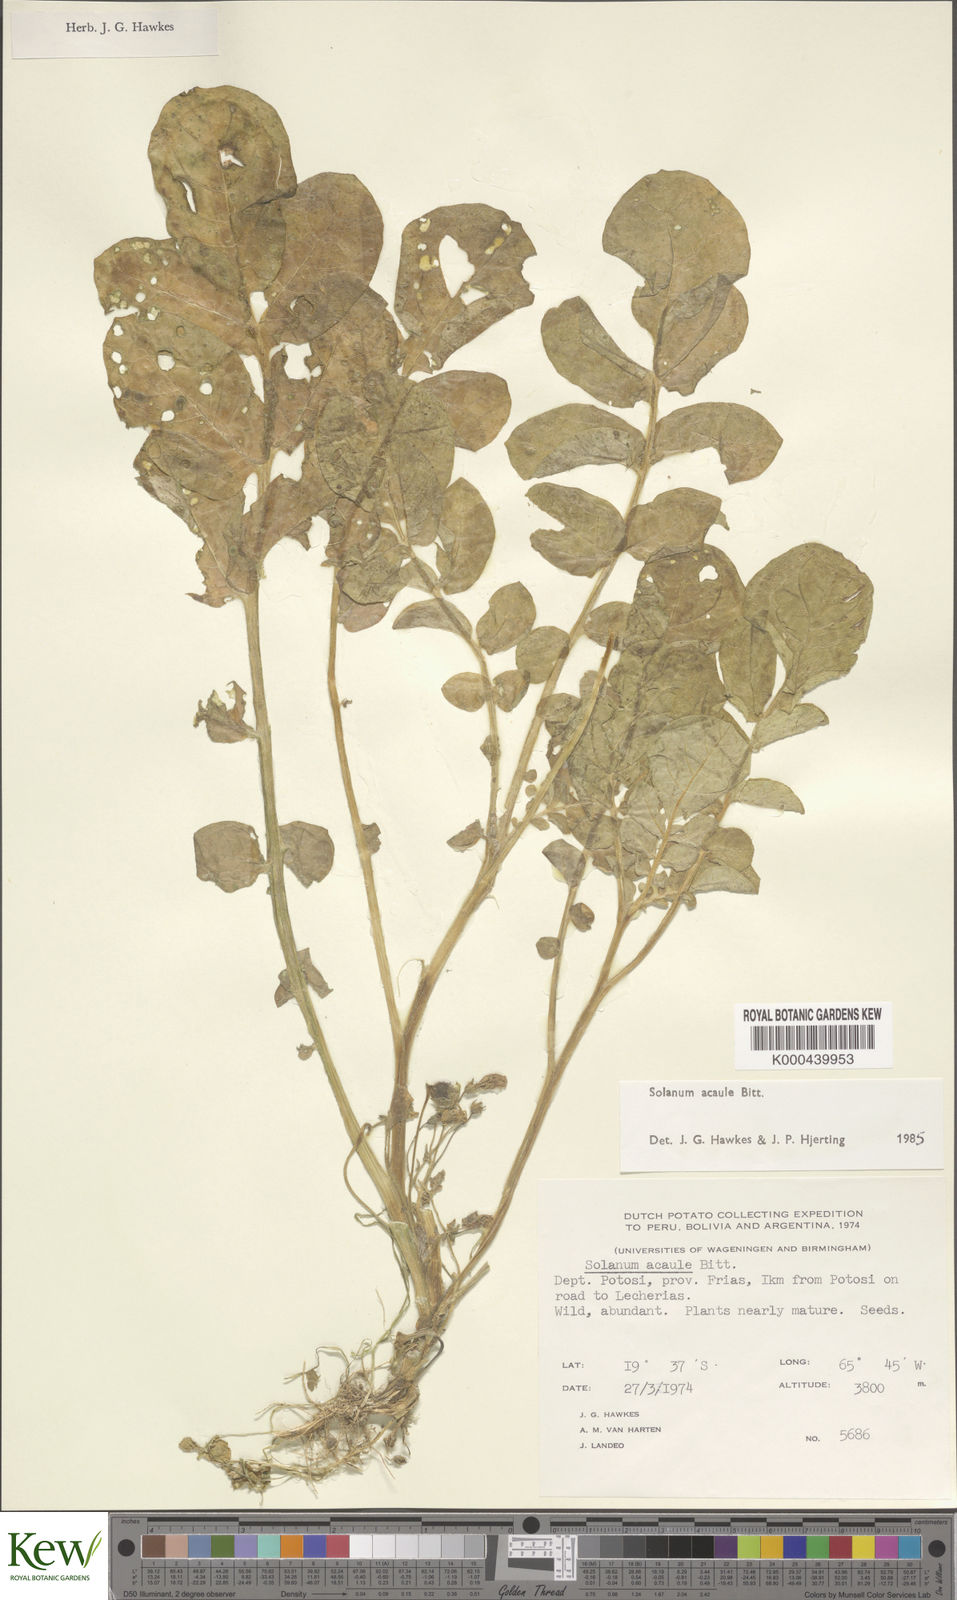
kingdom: Plantae
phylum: Tracheophyta
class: Magnoliopsida
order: Solanales
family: Solanaceae
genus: Solanum
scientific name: Solanum acaule
